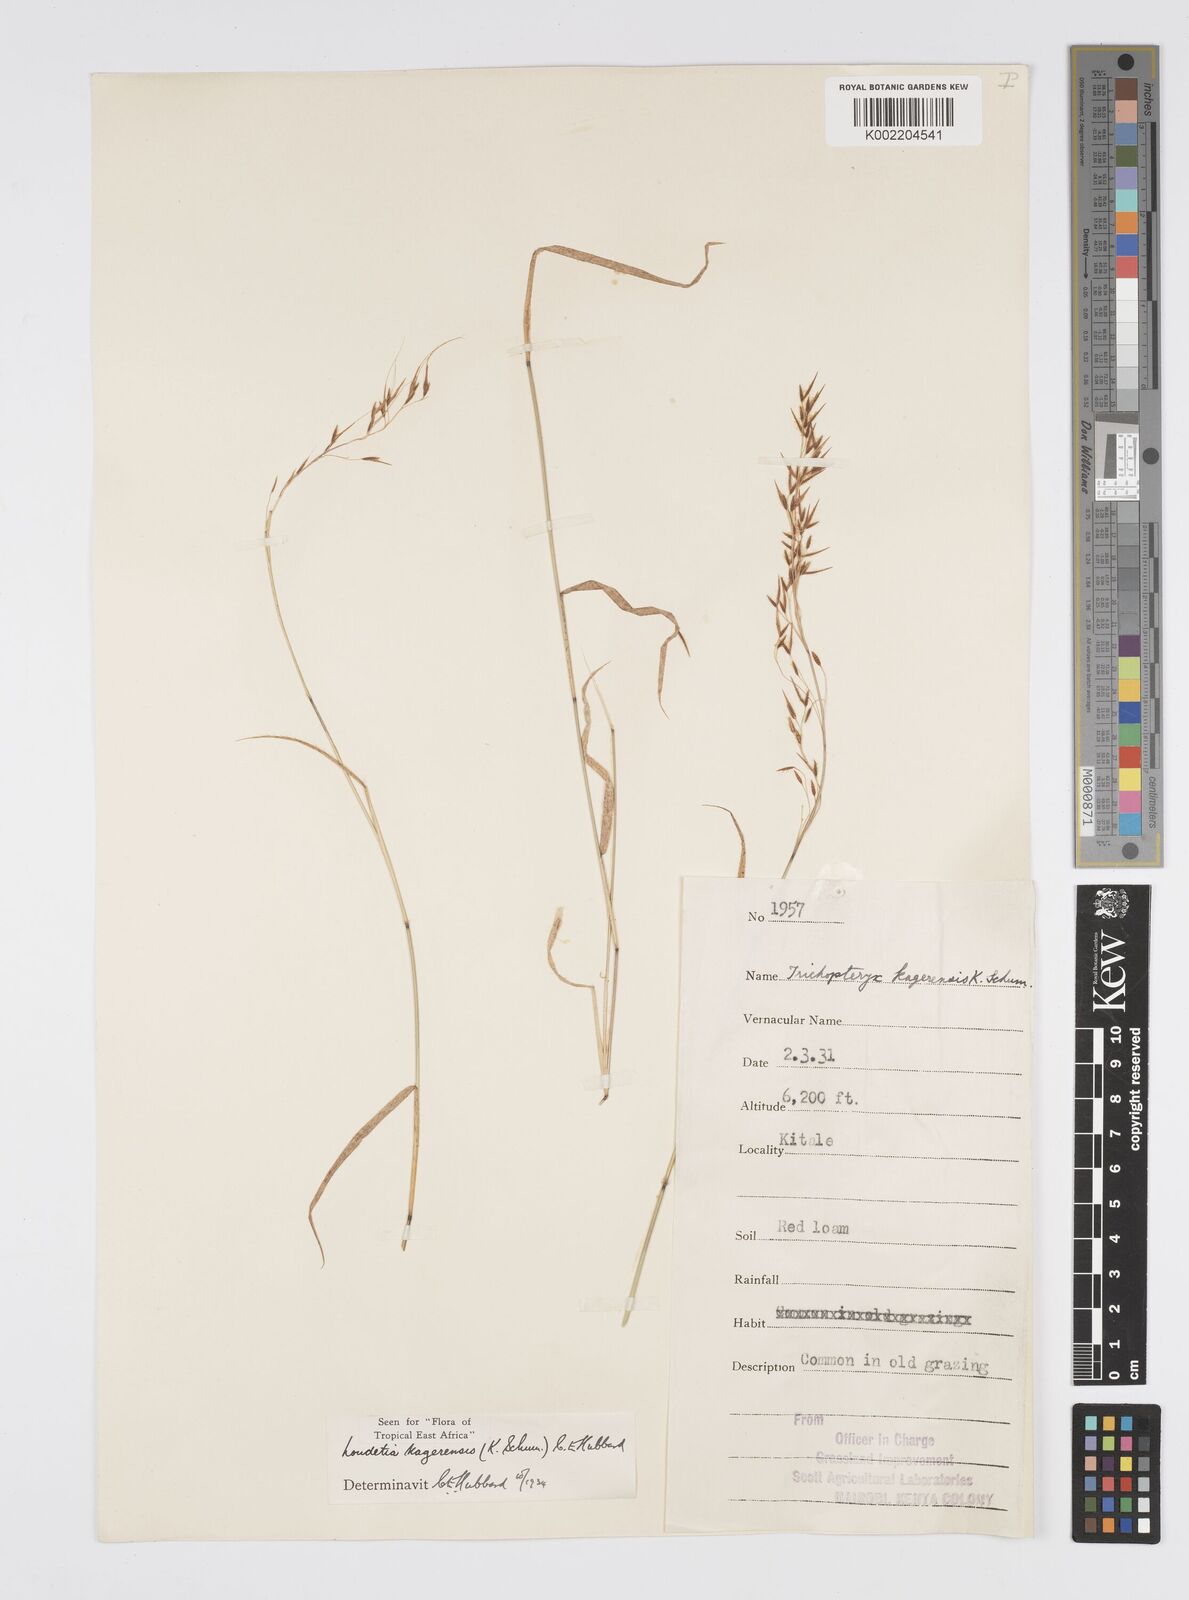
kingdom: Plantae
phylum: Tracheophyta
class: Liliopsida
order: Poales
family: Poaceae
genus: Loudetia
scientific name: Loudetia kagerensis
